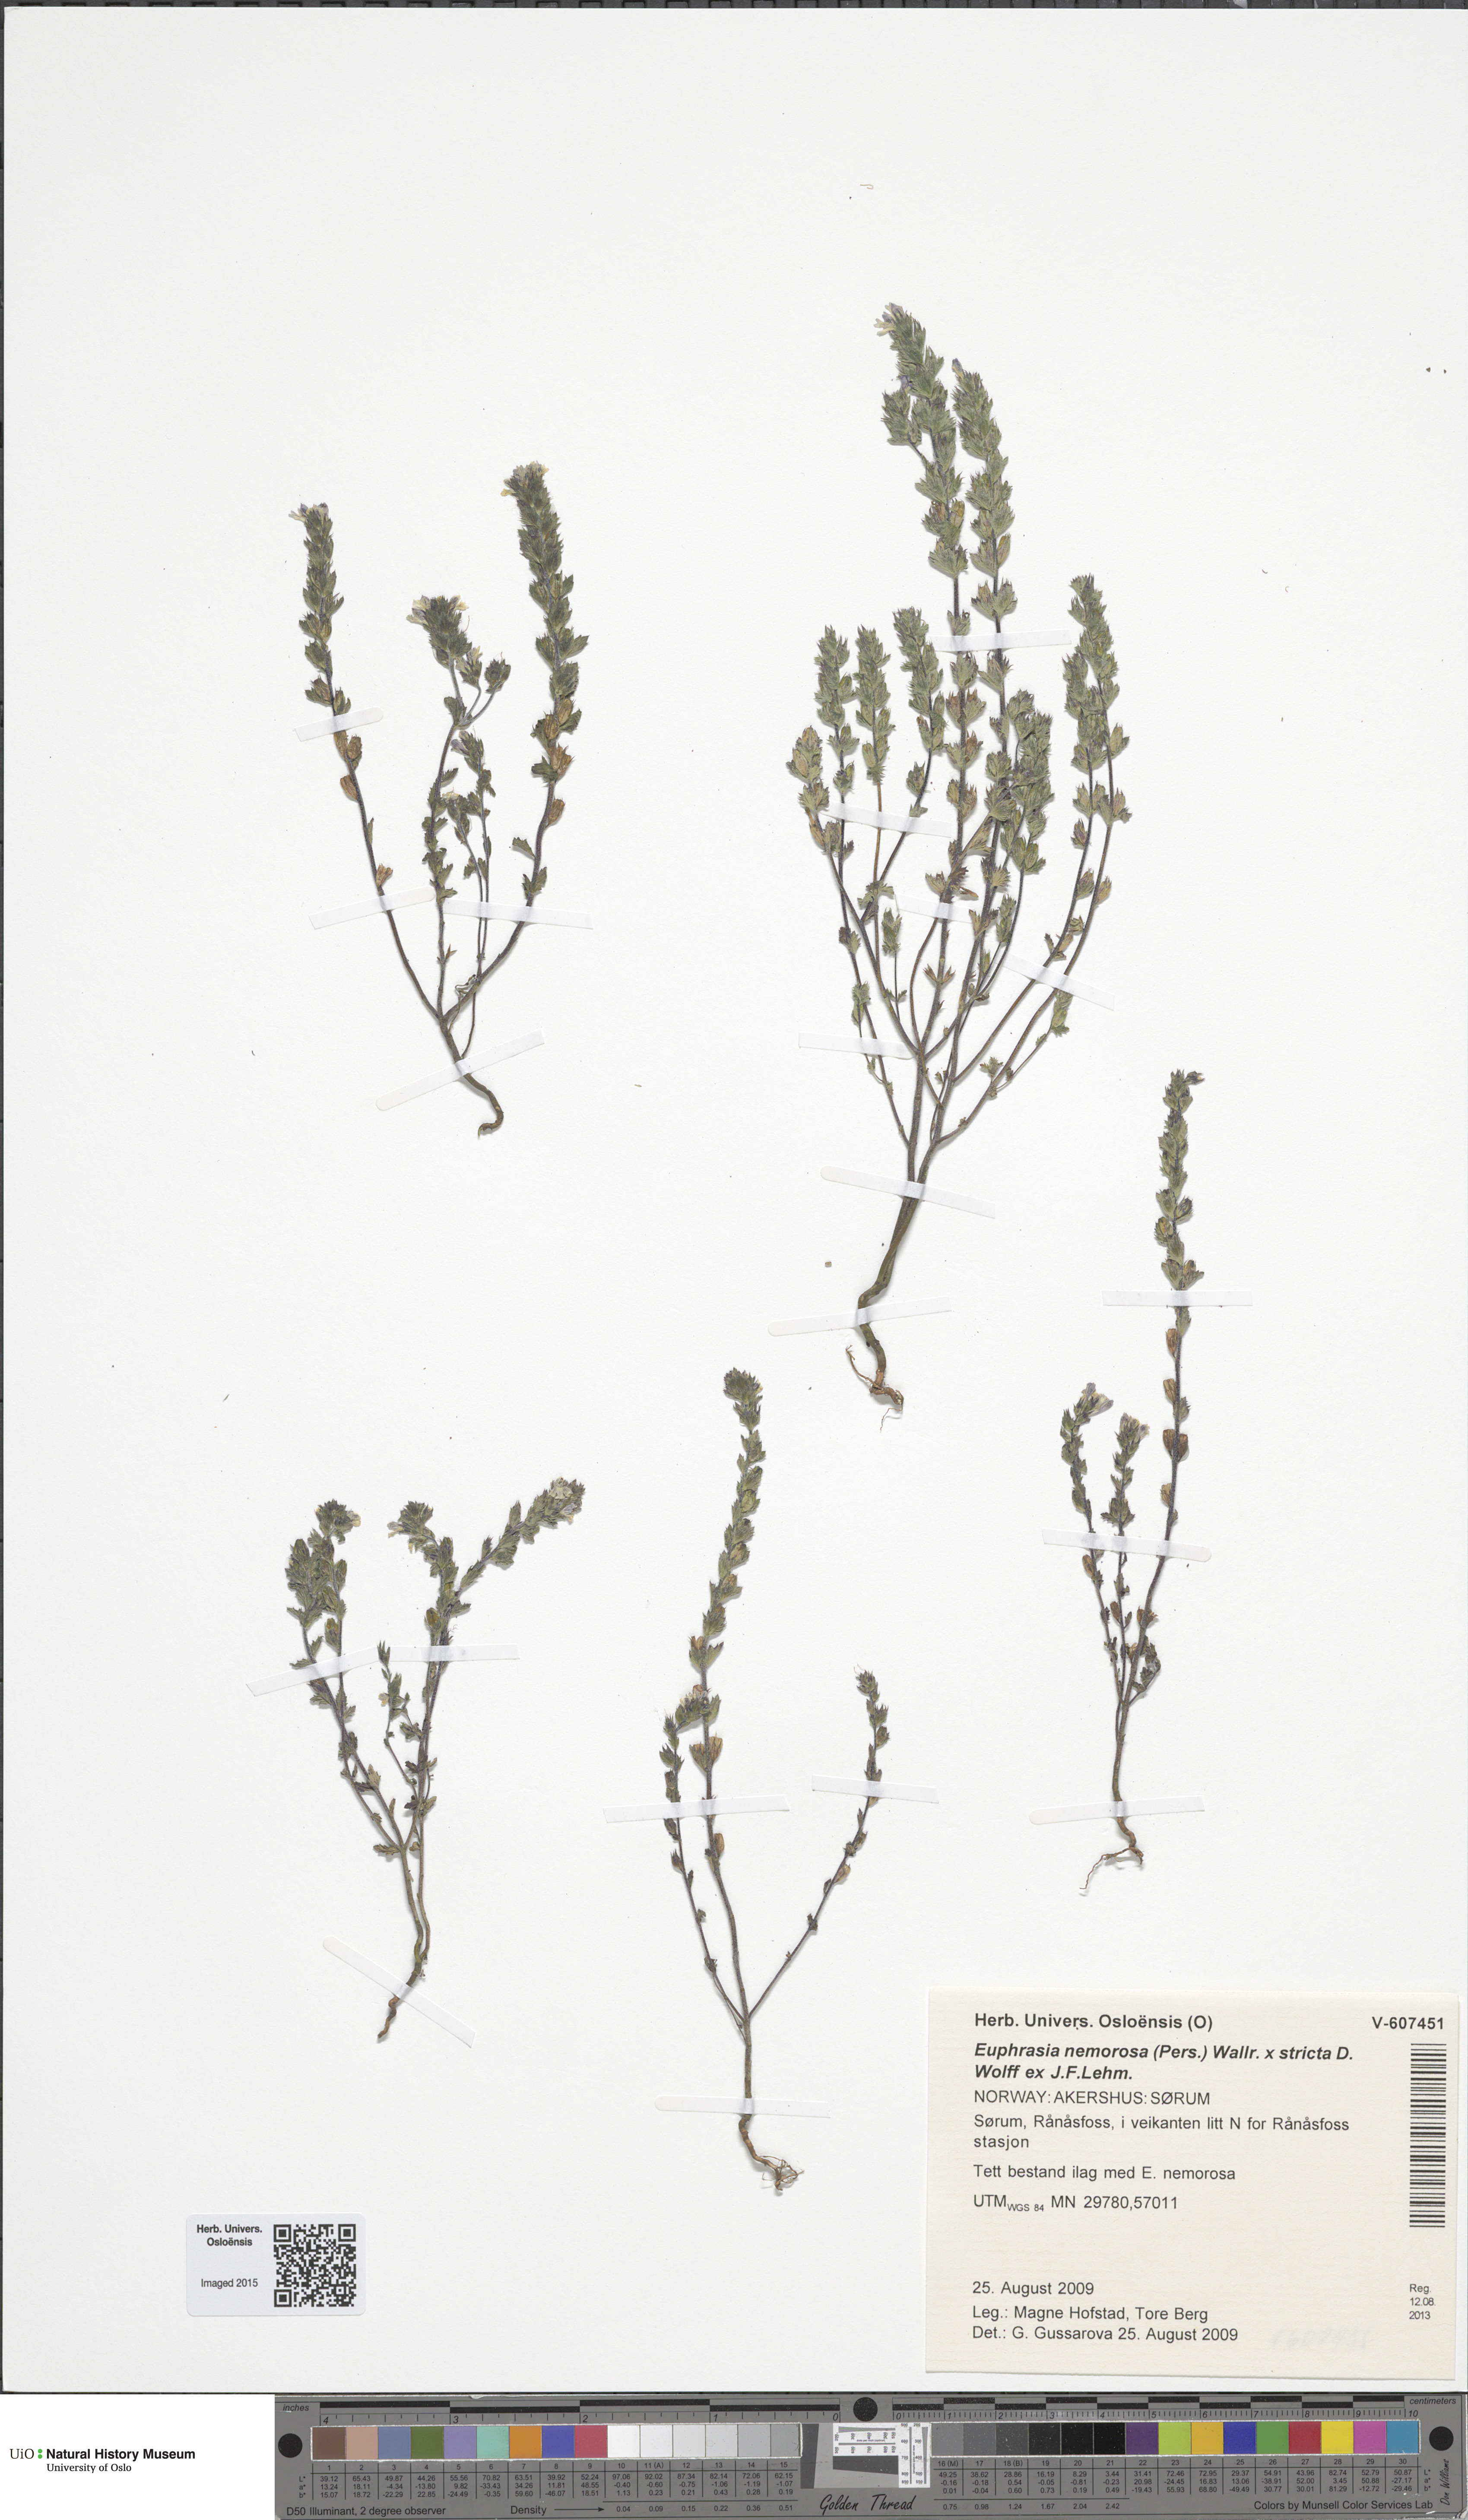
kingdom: Plantae
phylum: Tracheophyta
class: Magnoliopsida
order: Lamiales
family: Orobanchaceae
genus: Euphrasia
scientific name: Euphrasia
